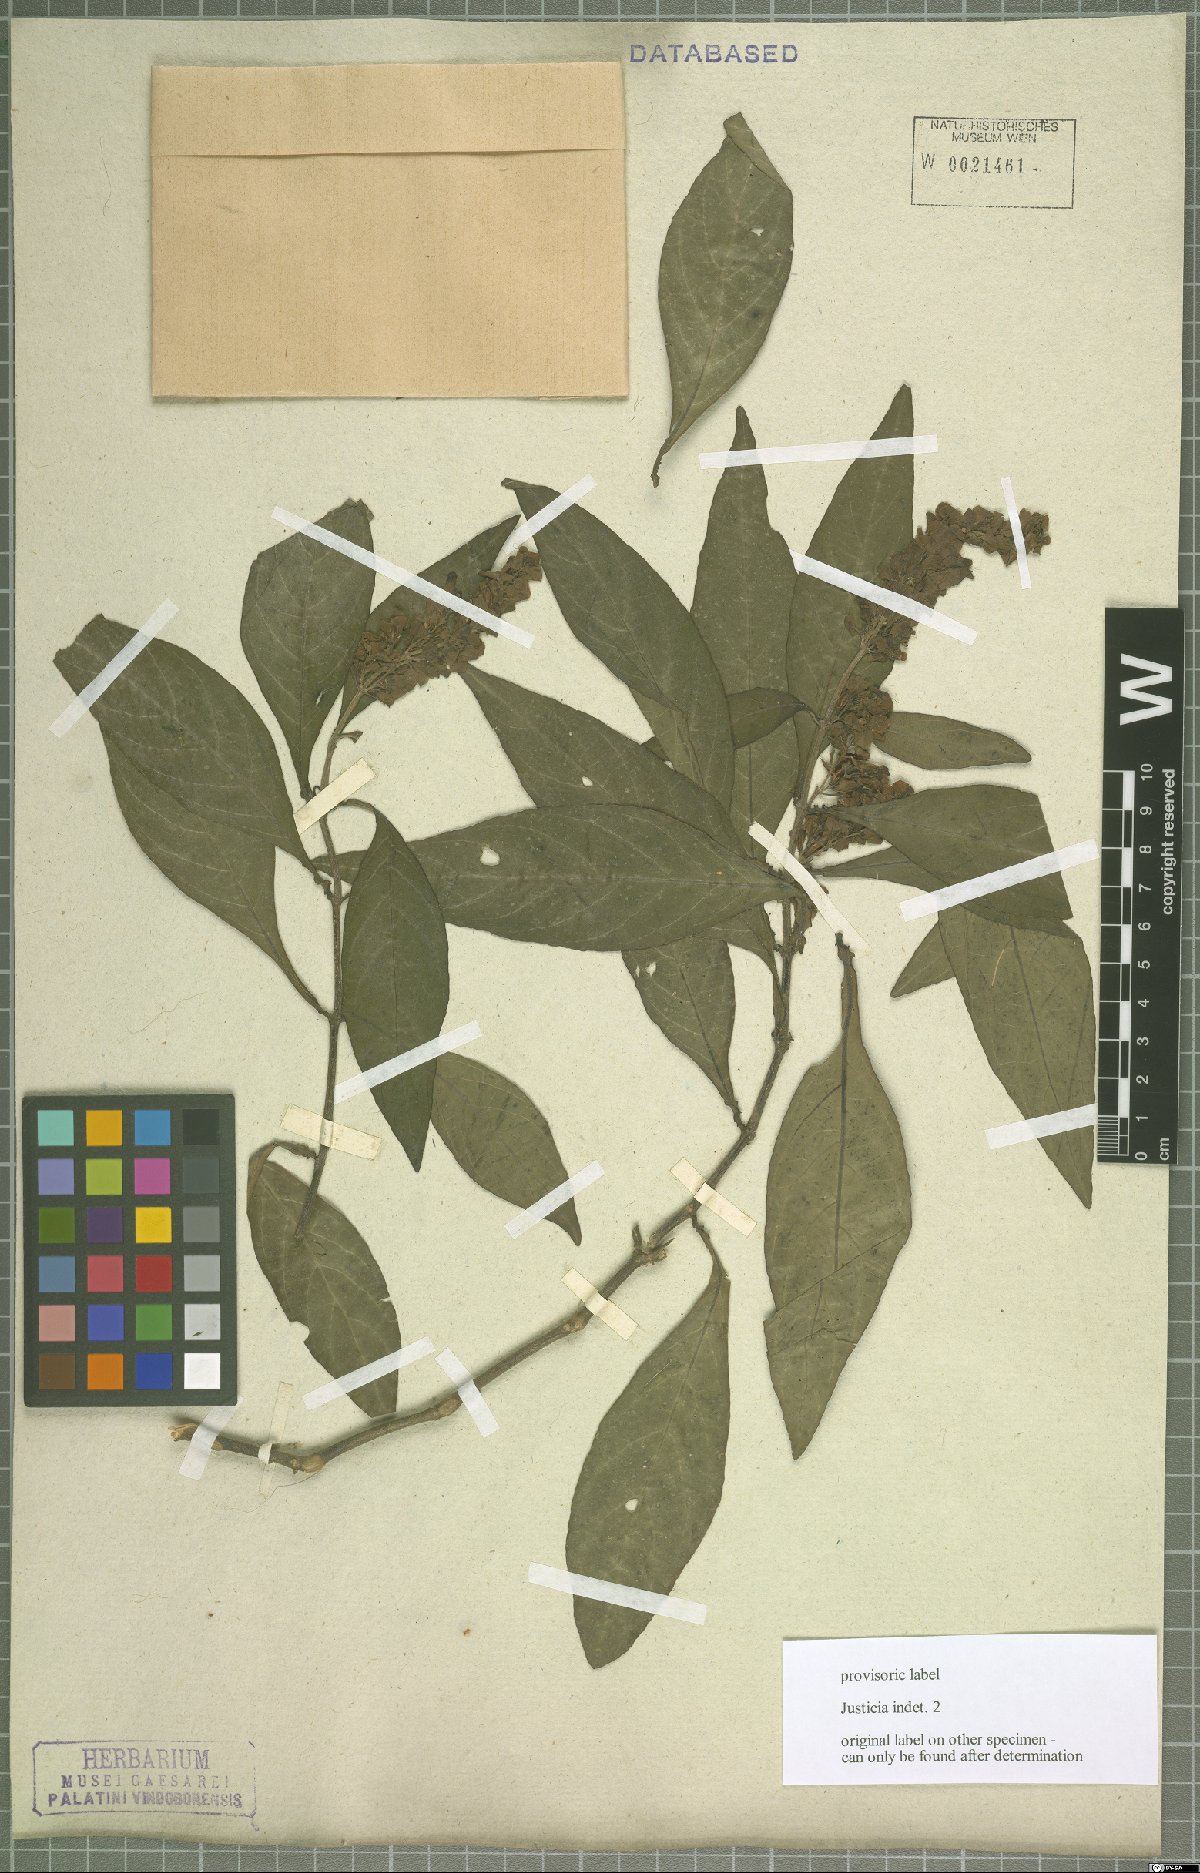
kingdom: Plantae
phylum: Tracheophyta
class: Magnoliopsida
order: Lamiales
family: Acanthaceae
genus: Justicia
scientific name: Justicia
